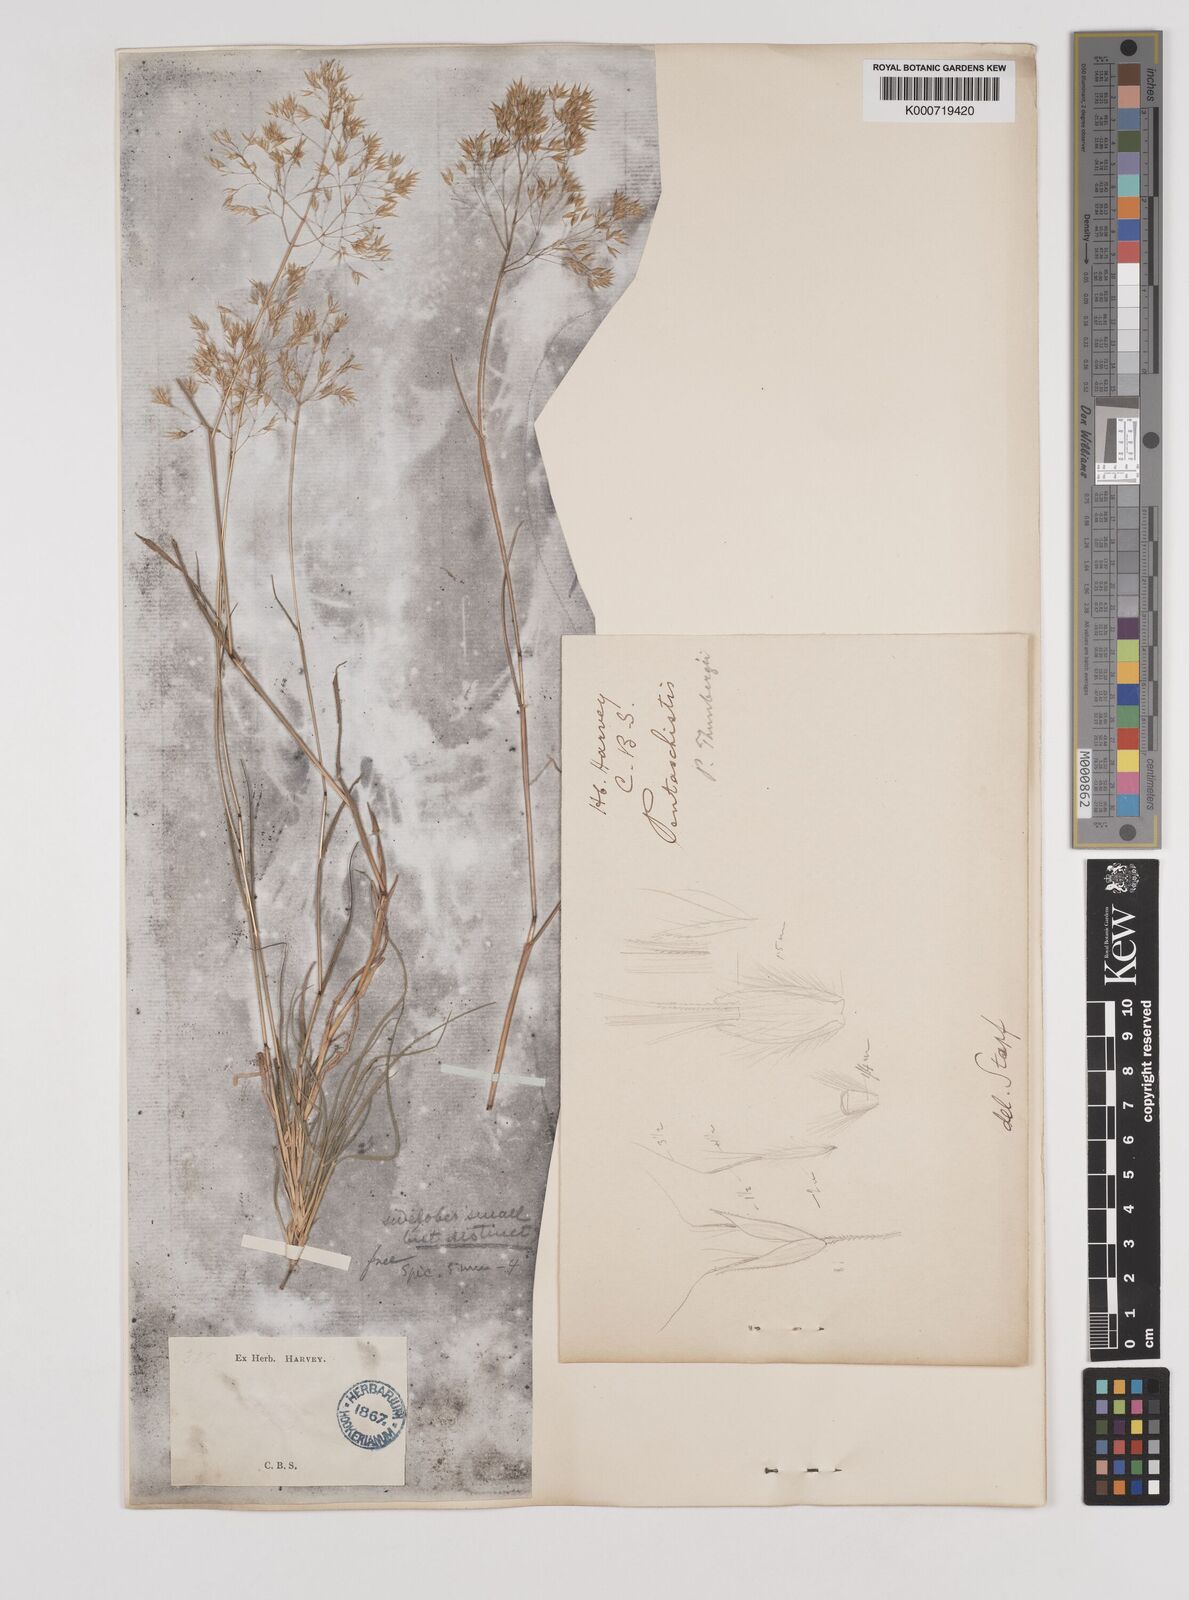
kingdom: Plantae
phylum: Tracheophyta
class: Liliopsida
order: Poales
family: Poaceae
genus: Pentameris
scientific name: Pentameris triseta
